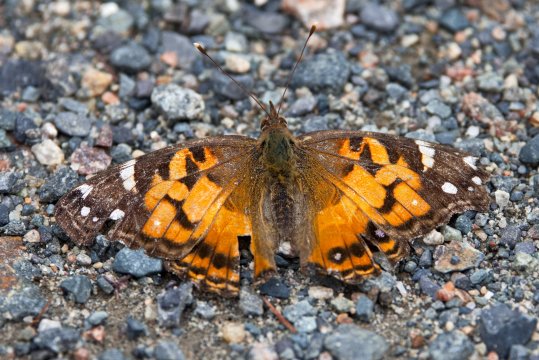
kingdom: Animalia
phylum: Arthropoda
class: Insecta
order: Lepidoptera
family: Nymphalidae
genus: Vanessa
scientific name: Vanessa virginiensis
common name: American Lady
